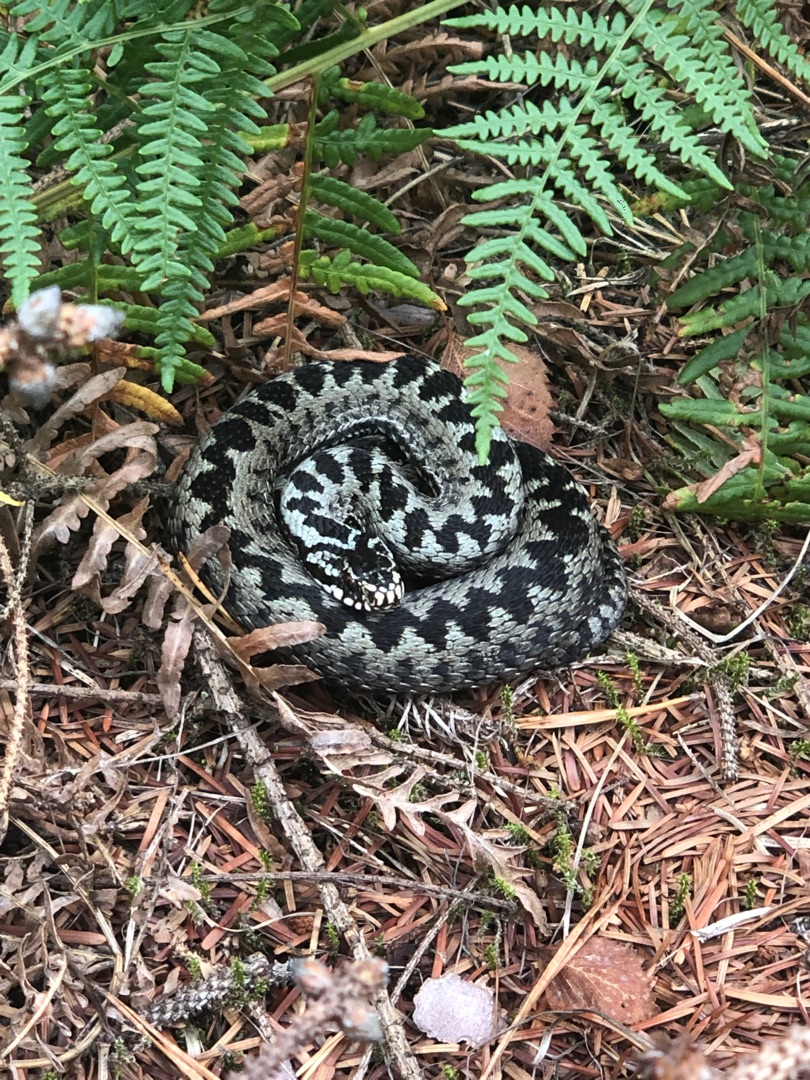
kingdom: Animalia
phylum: Chordata
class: Squamata
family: Viperidae
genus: Vipera
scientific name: Vipera berus
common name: Hugorm
